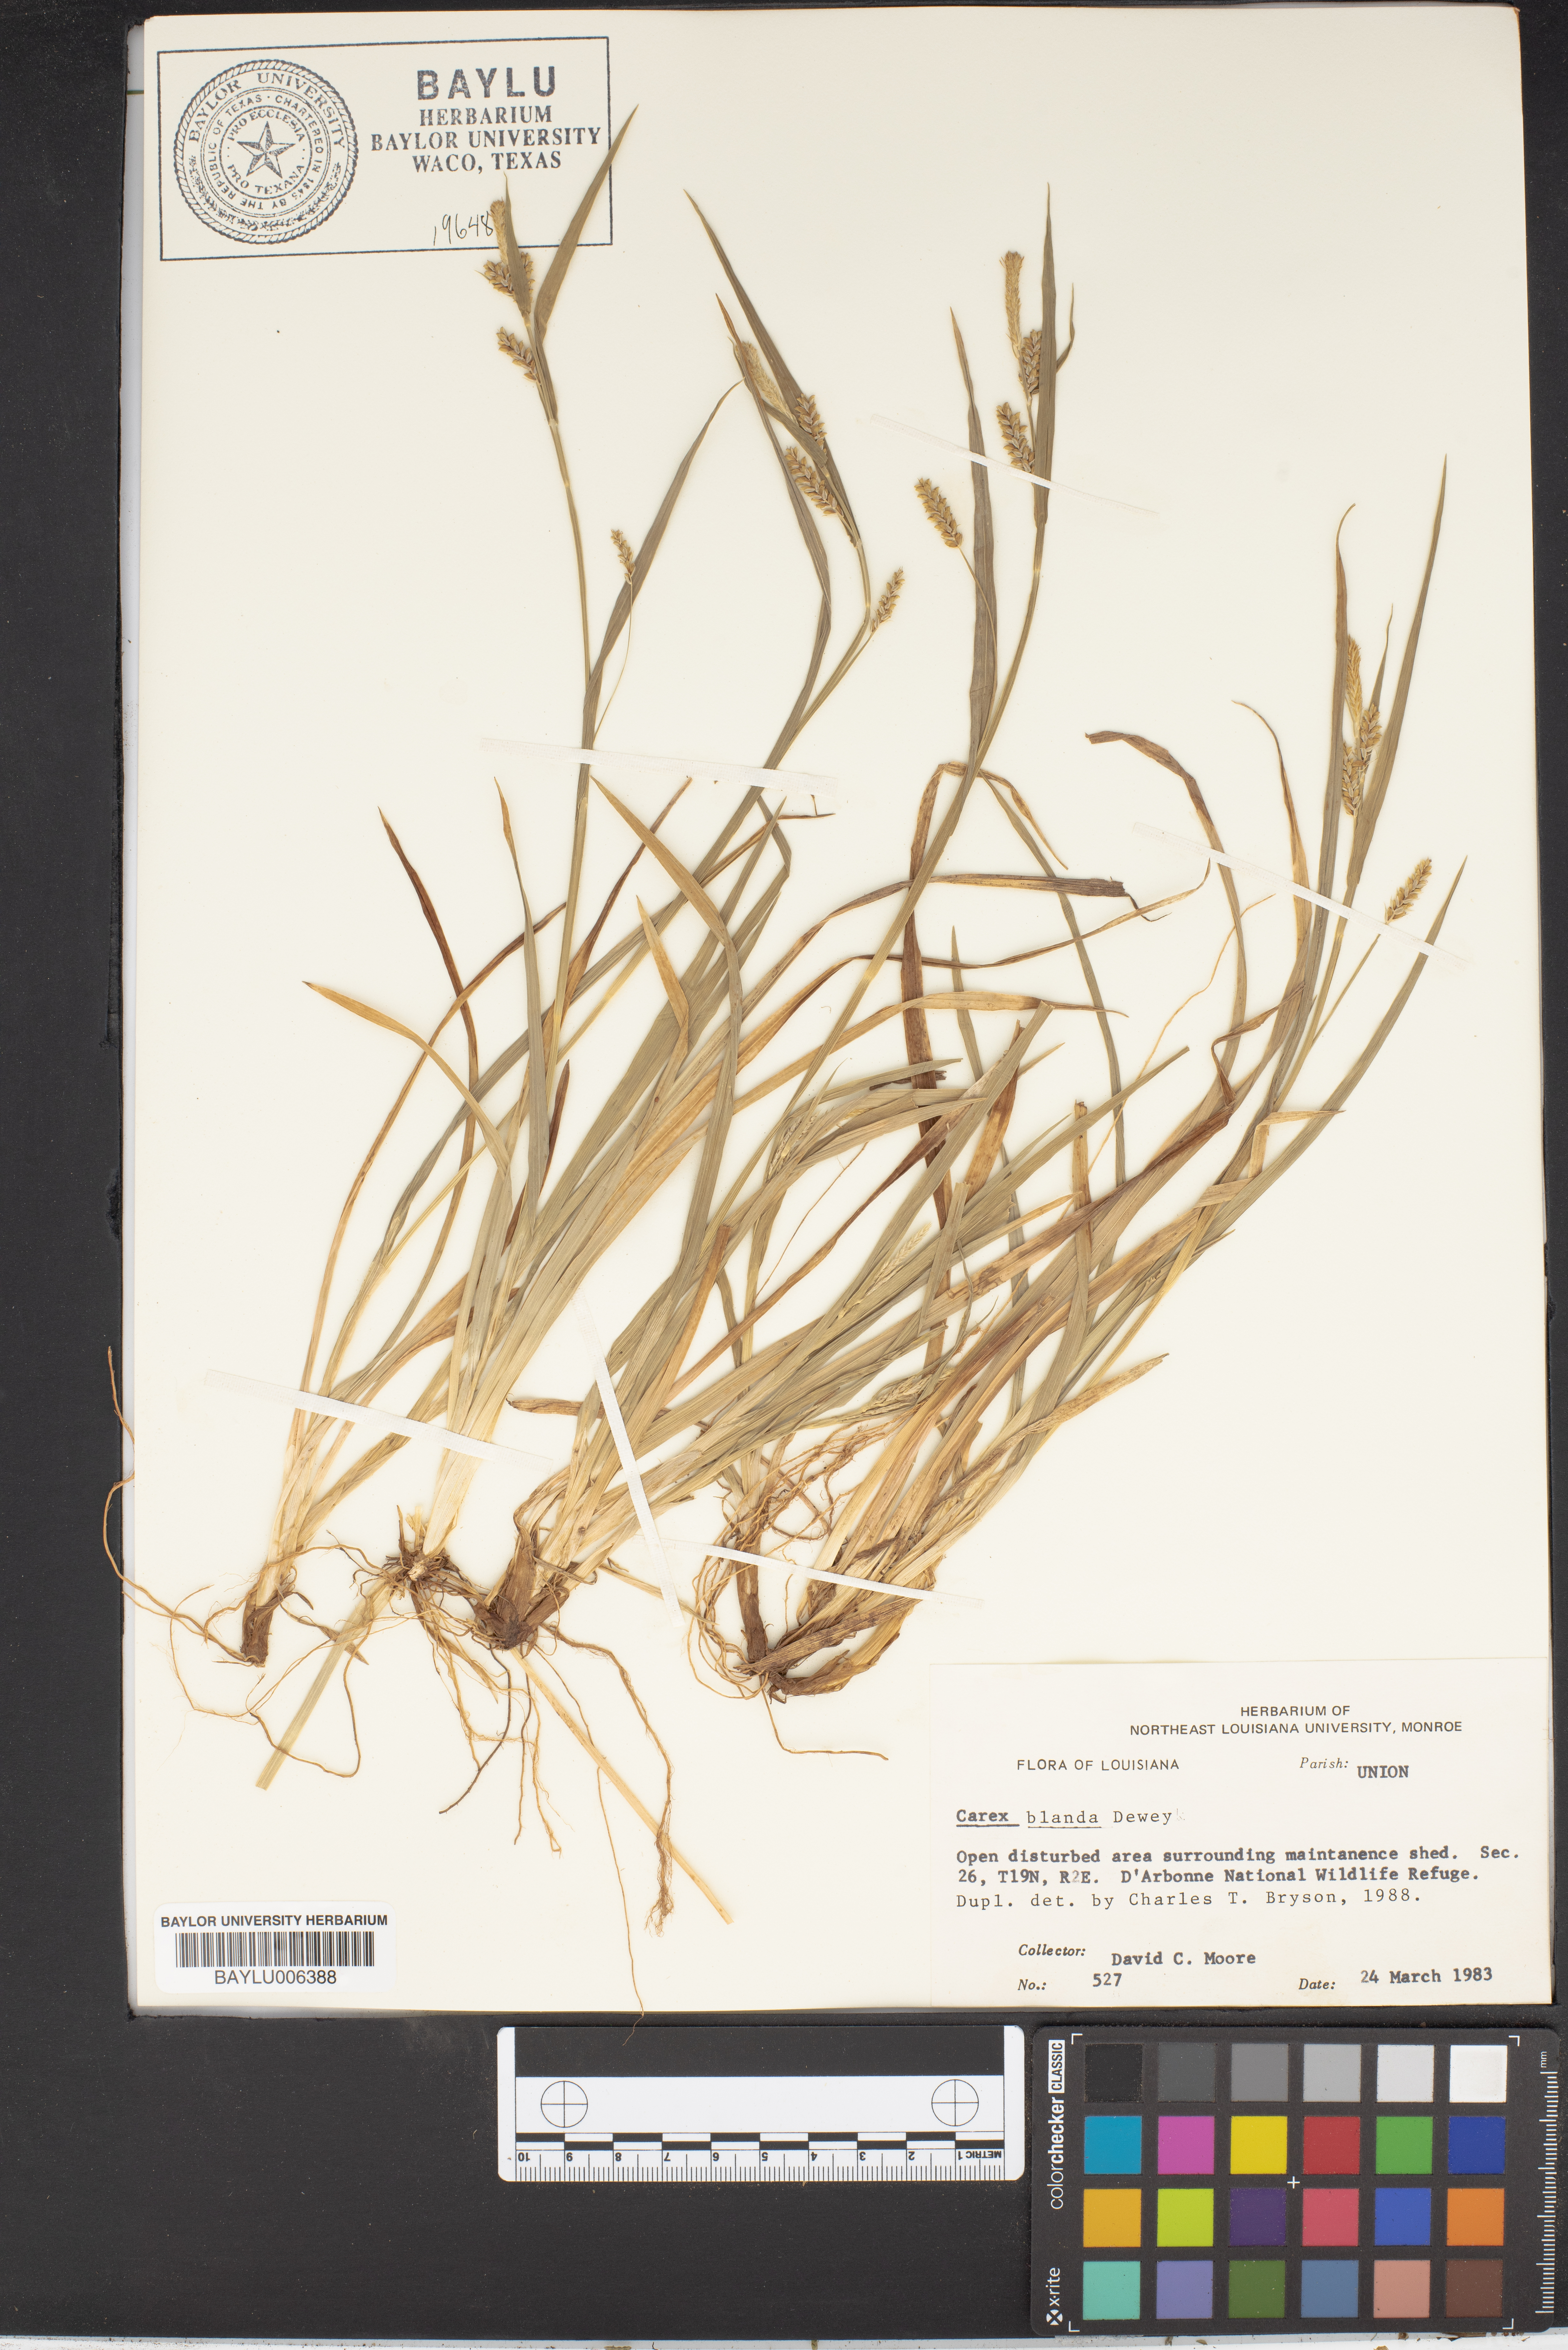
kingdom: Plantae
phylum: Tracheophyta
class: Liliopsida
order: Poales
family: Cyperaceae
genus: Carex
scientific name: Carex blanda
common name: Bland sedge
